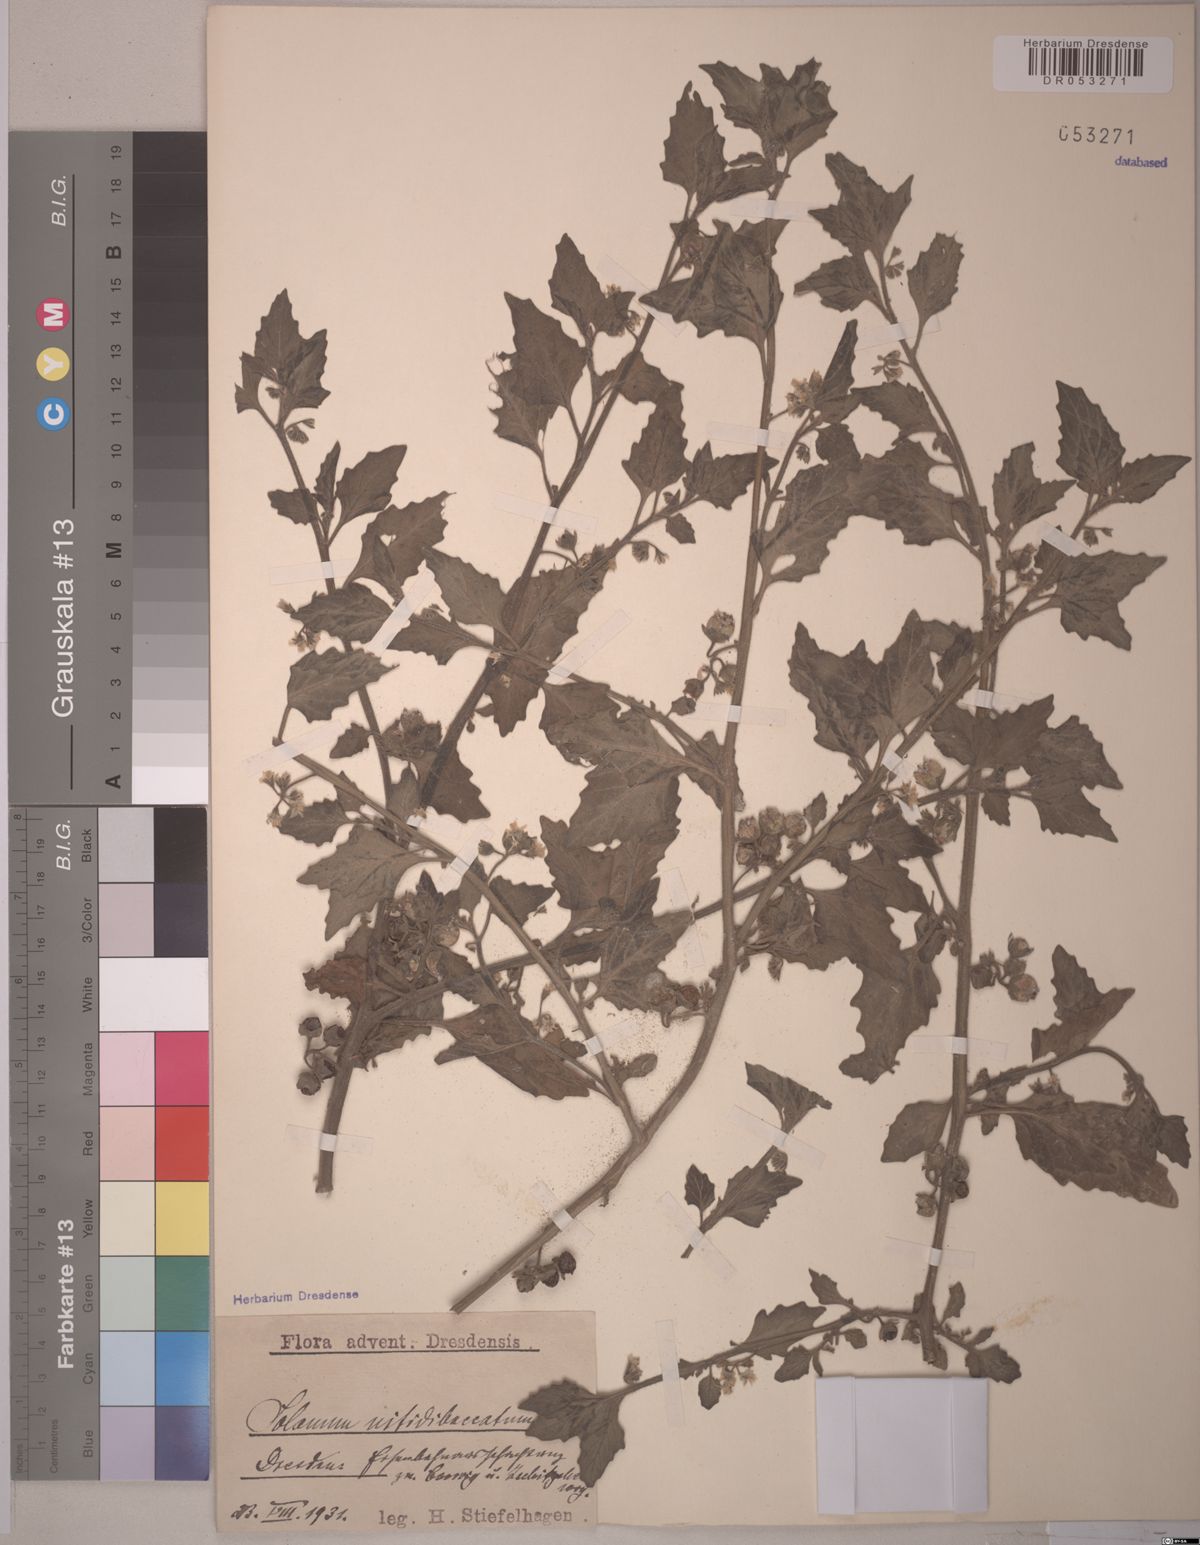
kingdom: Plantae
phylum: Tracheophyta
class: Magnoliopsida
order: Solanales
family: Solanaceae
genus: Solanum
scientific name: Solanum nitidibaccatum
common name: Hairy nightshade
